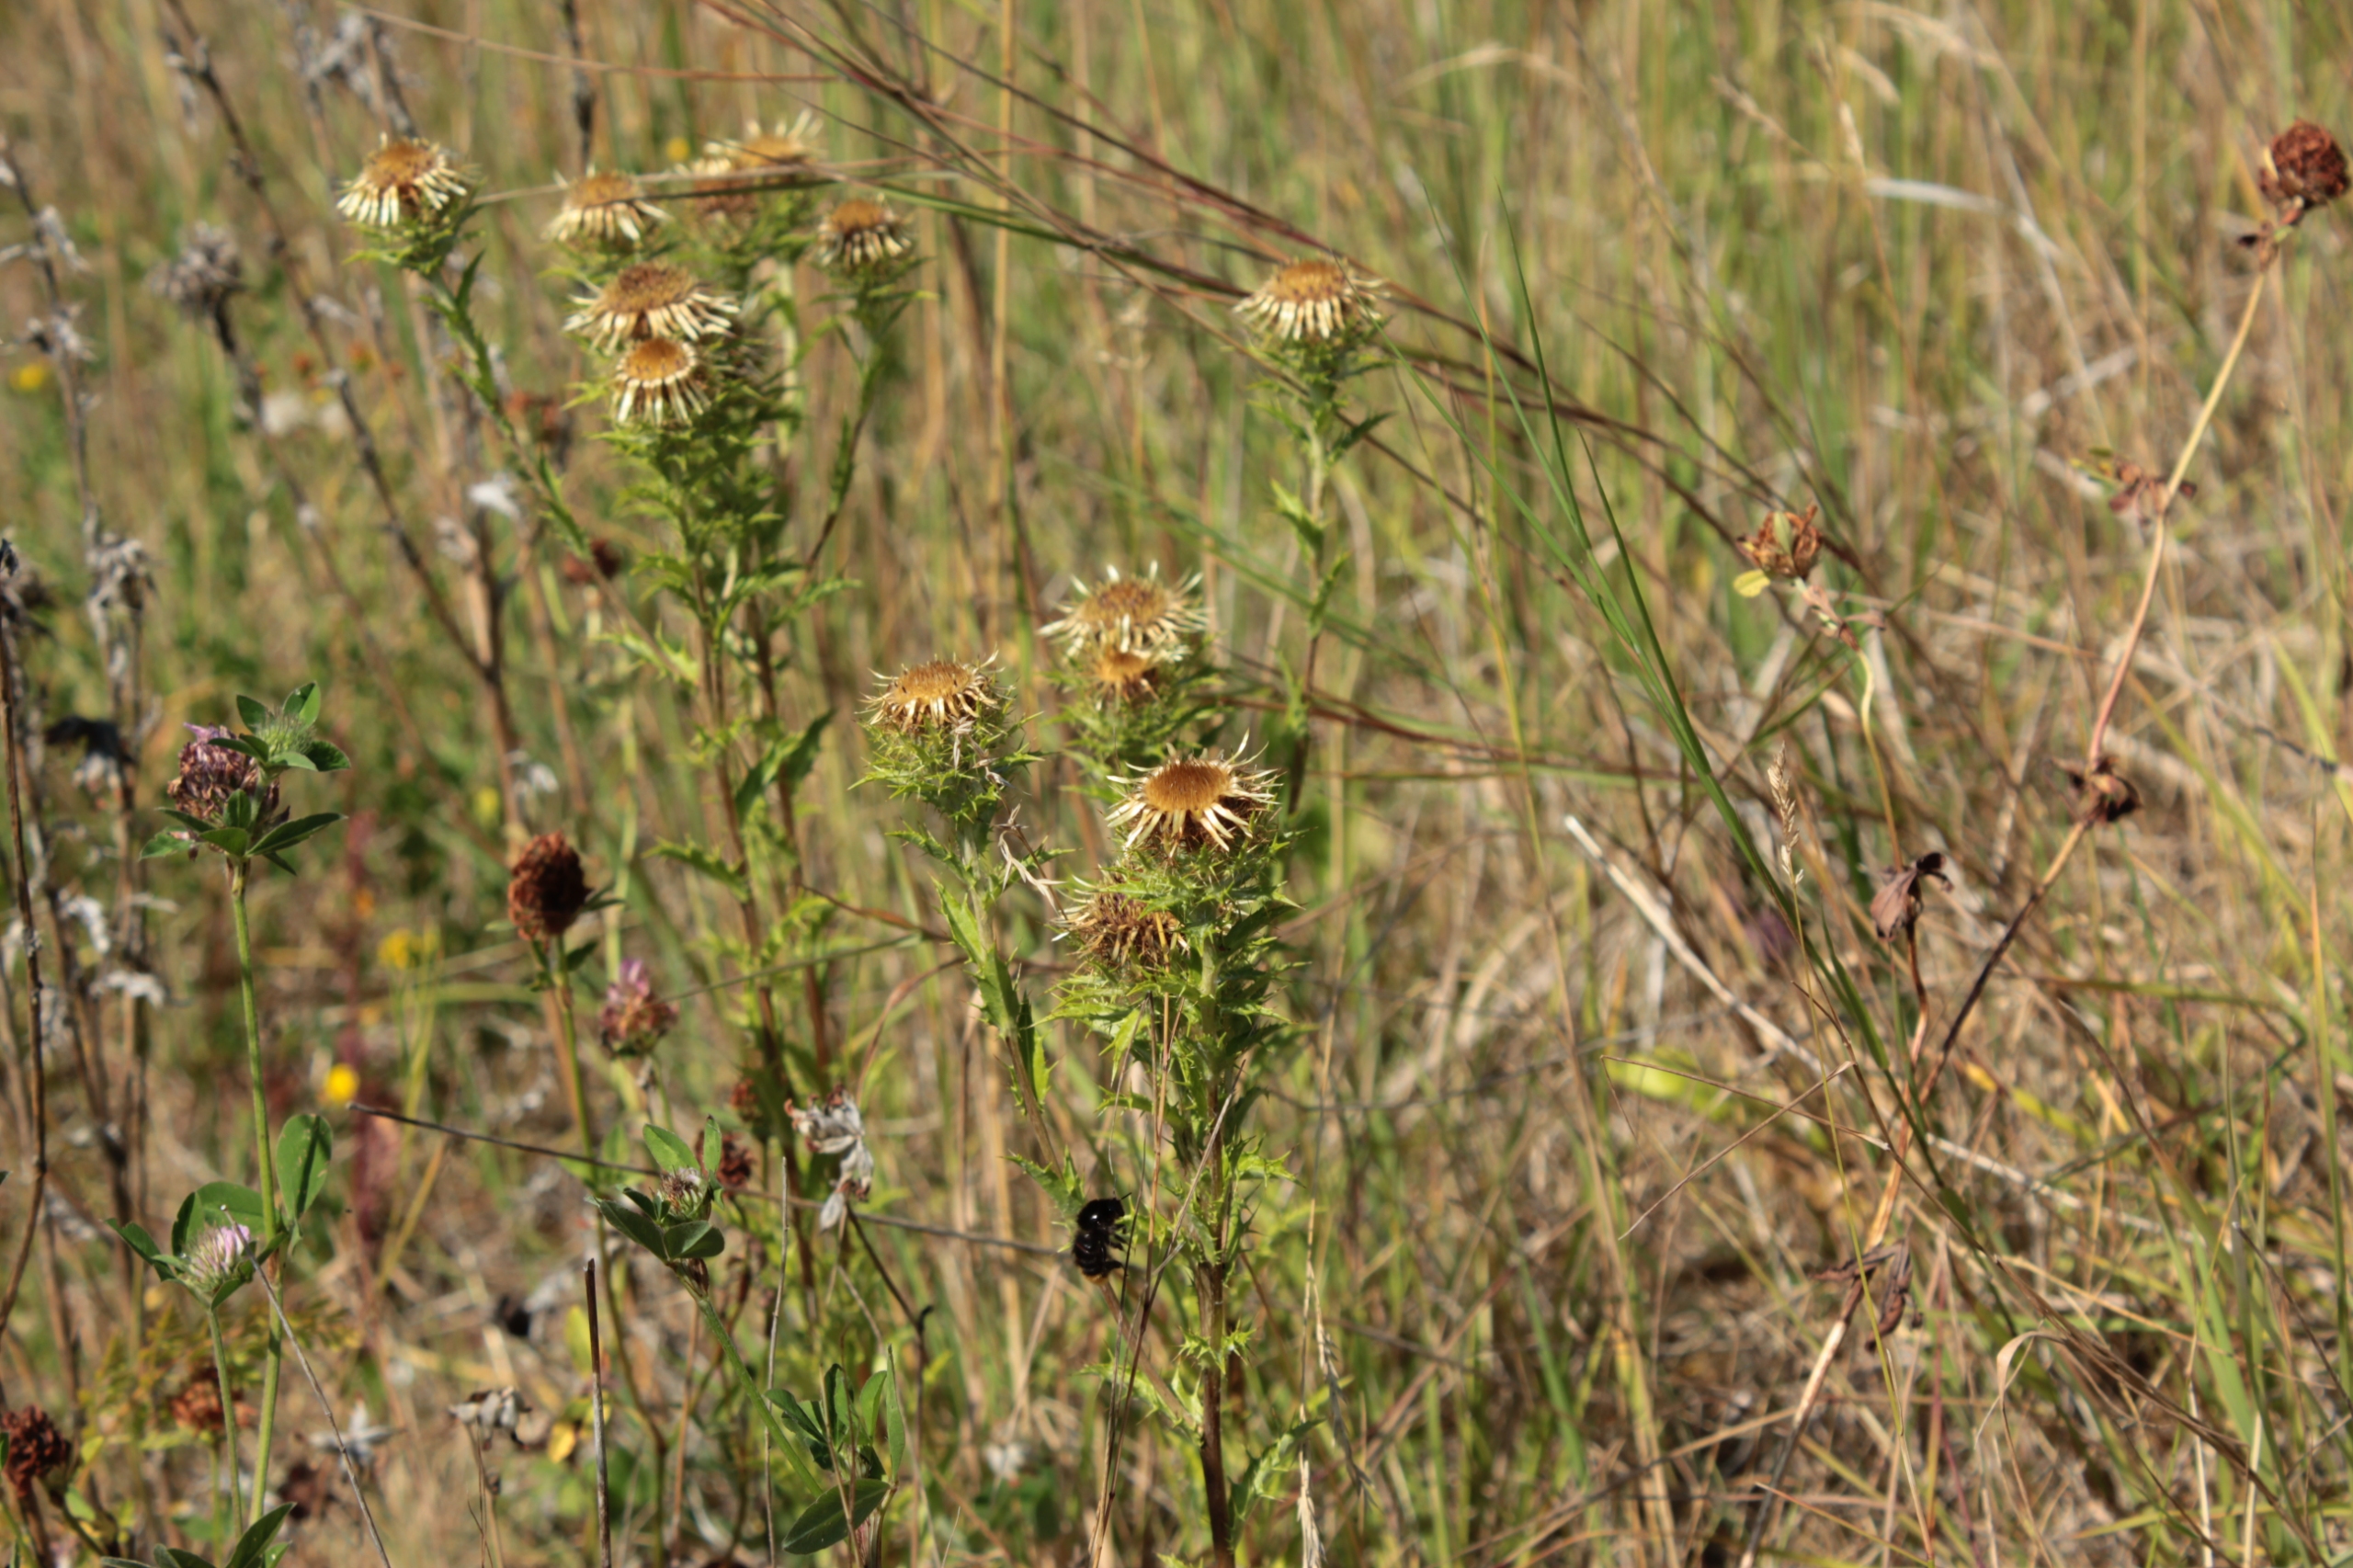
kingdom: Plantae
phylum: Tracheophyta
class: Magnoliopsida
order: Asterales
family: Asteraceae
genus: Carlina
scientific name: Carlina vulgaris
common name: Bakketidsel
